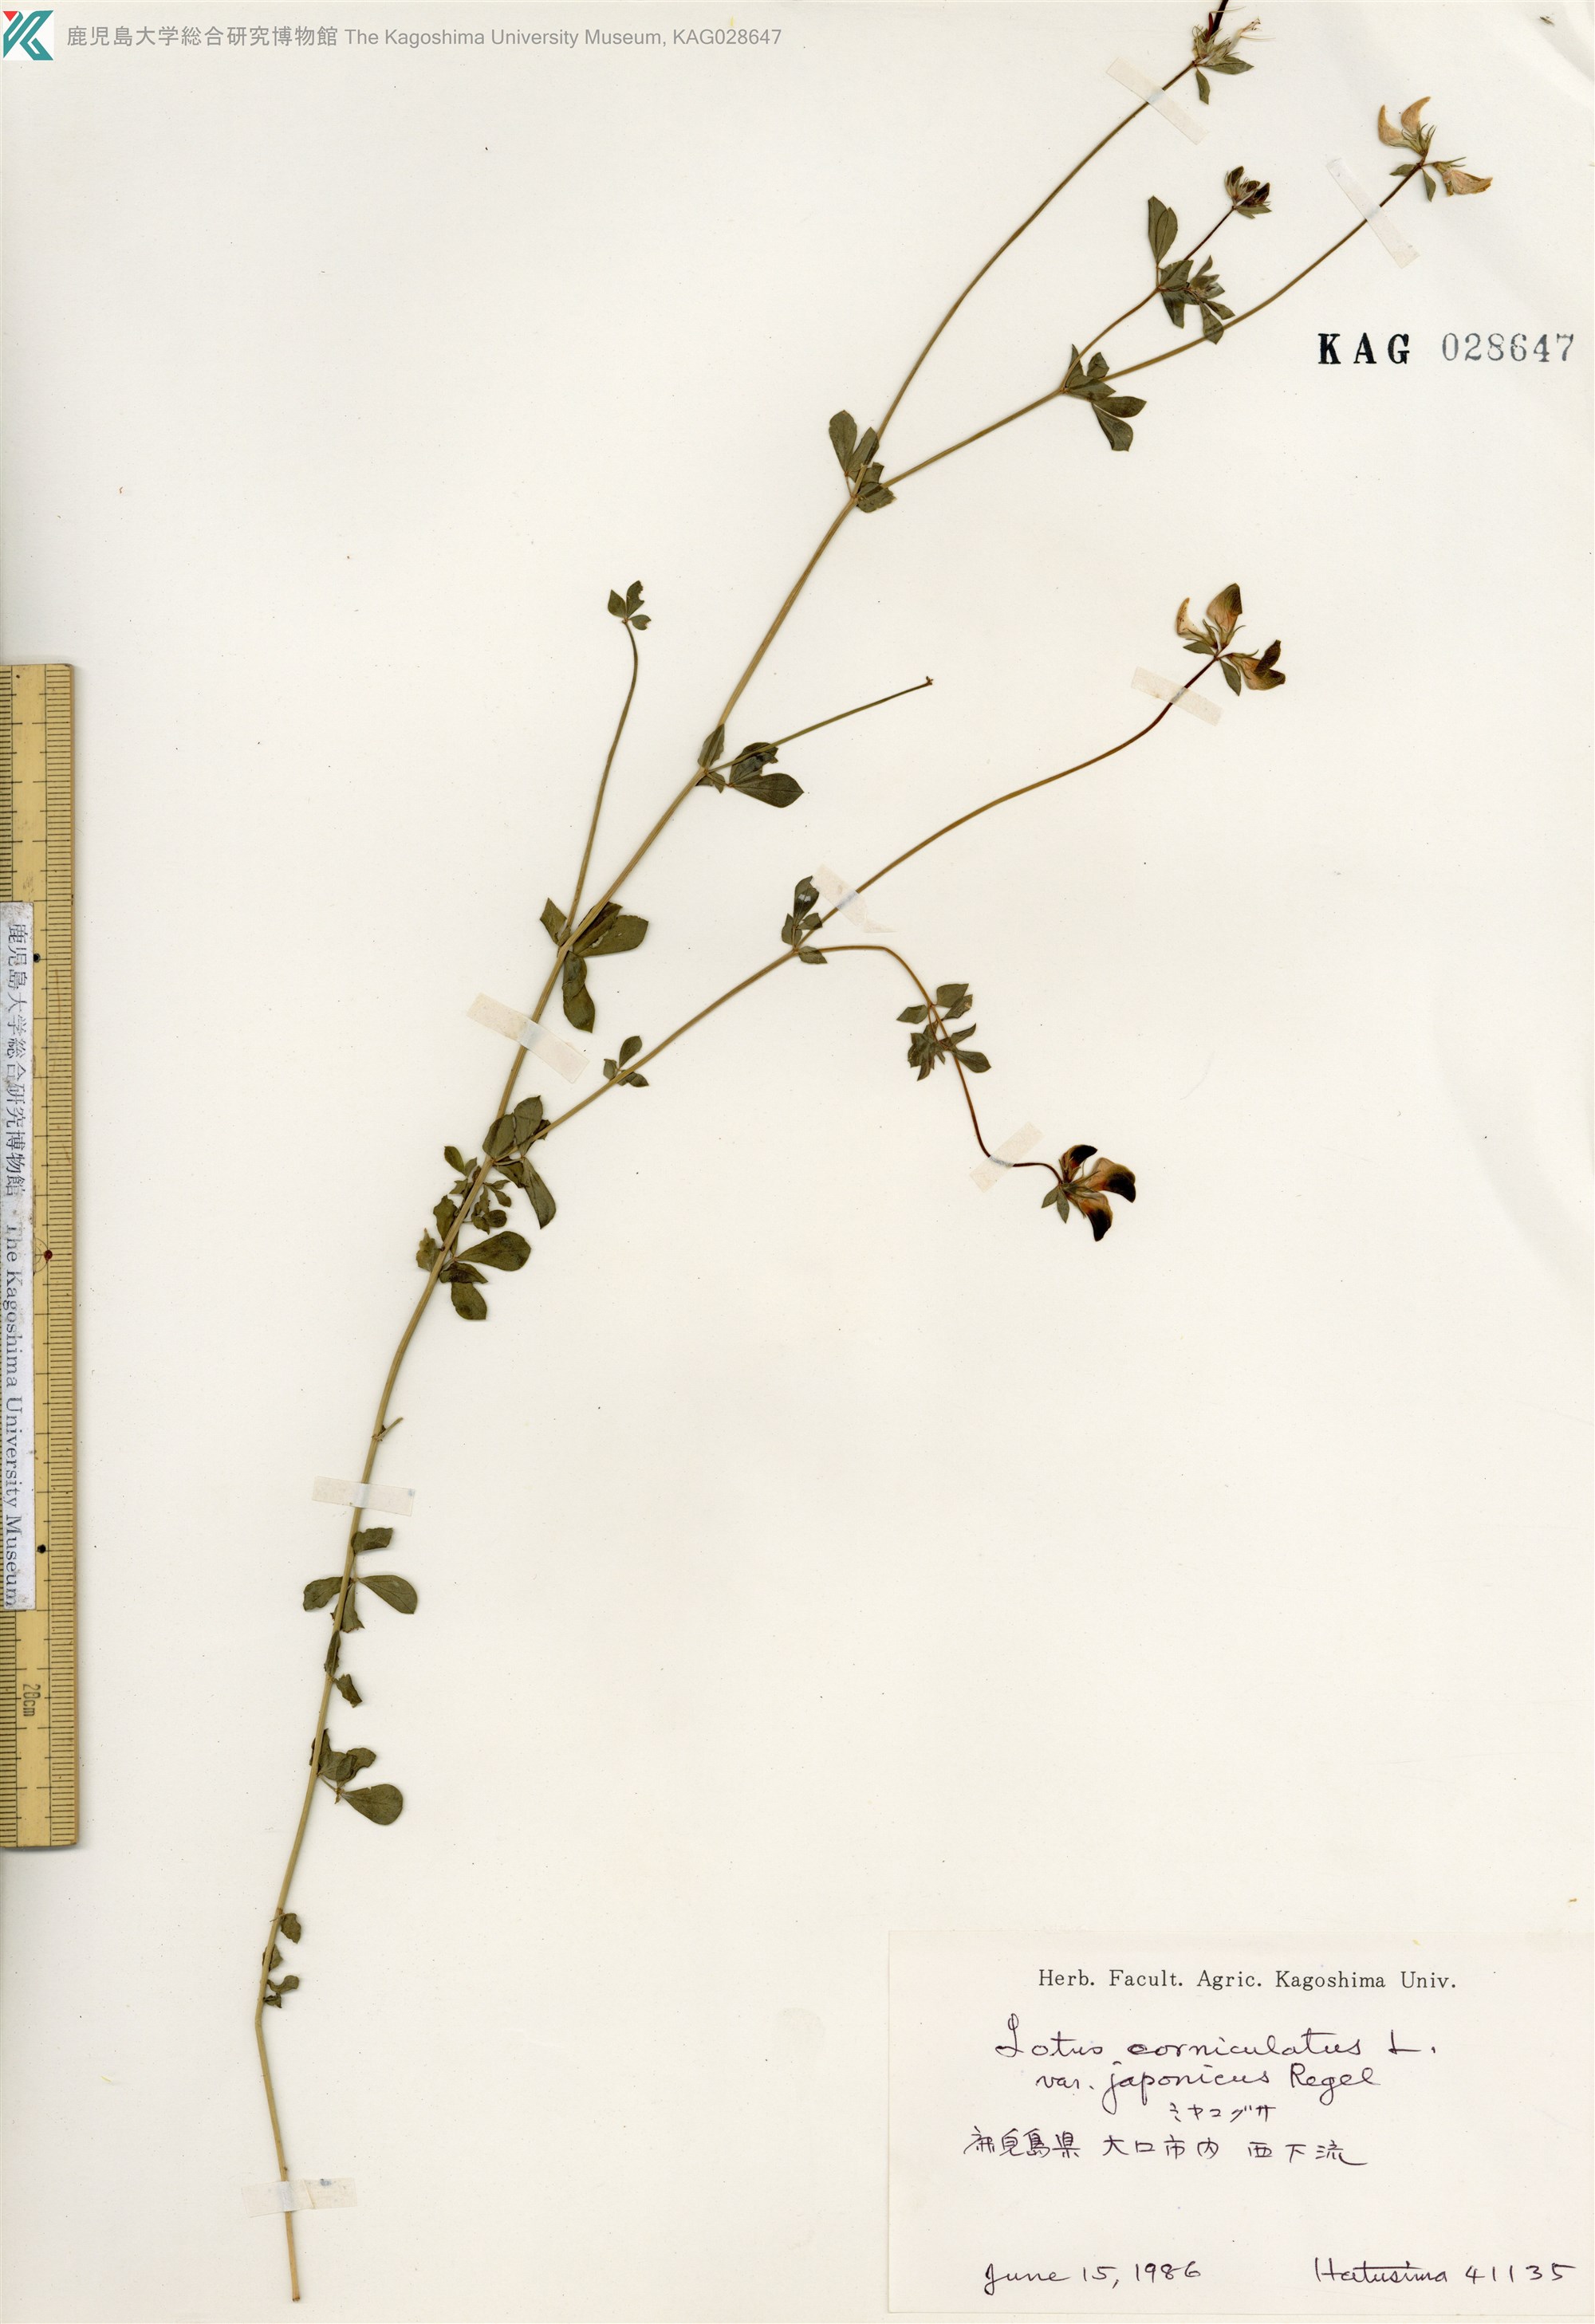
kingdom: Plantae
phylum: Tracheophyta
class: Magnoliopsida
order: Fabales
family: Fabaceae
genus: Lotus
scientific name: Lotus japonicus
